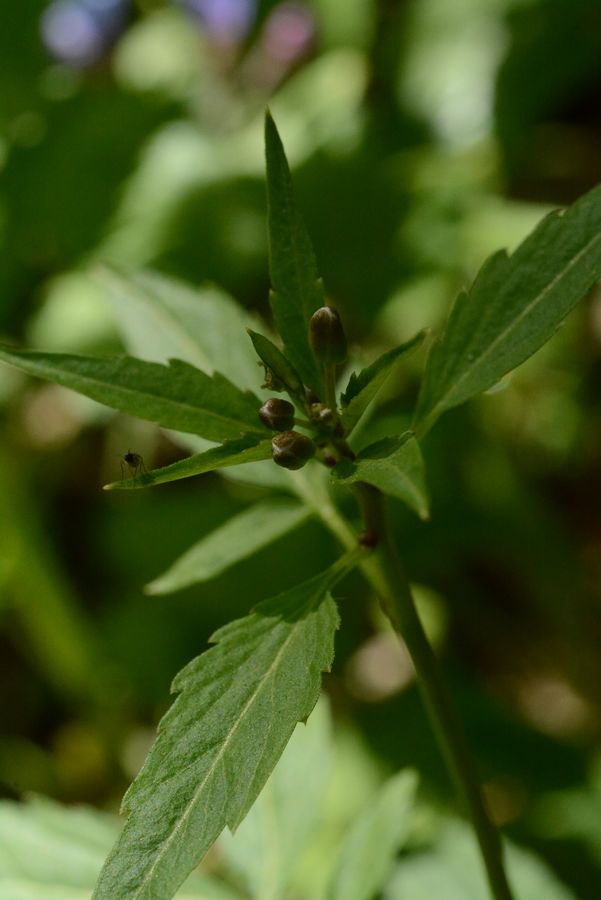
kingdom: Plantae
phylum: Tracheophyta
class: Magnoliopsida
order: Brassicales
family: Brassicaceae
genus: Cardamine
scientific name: Cardamine bulbifera
